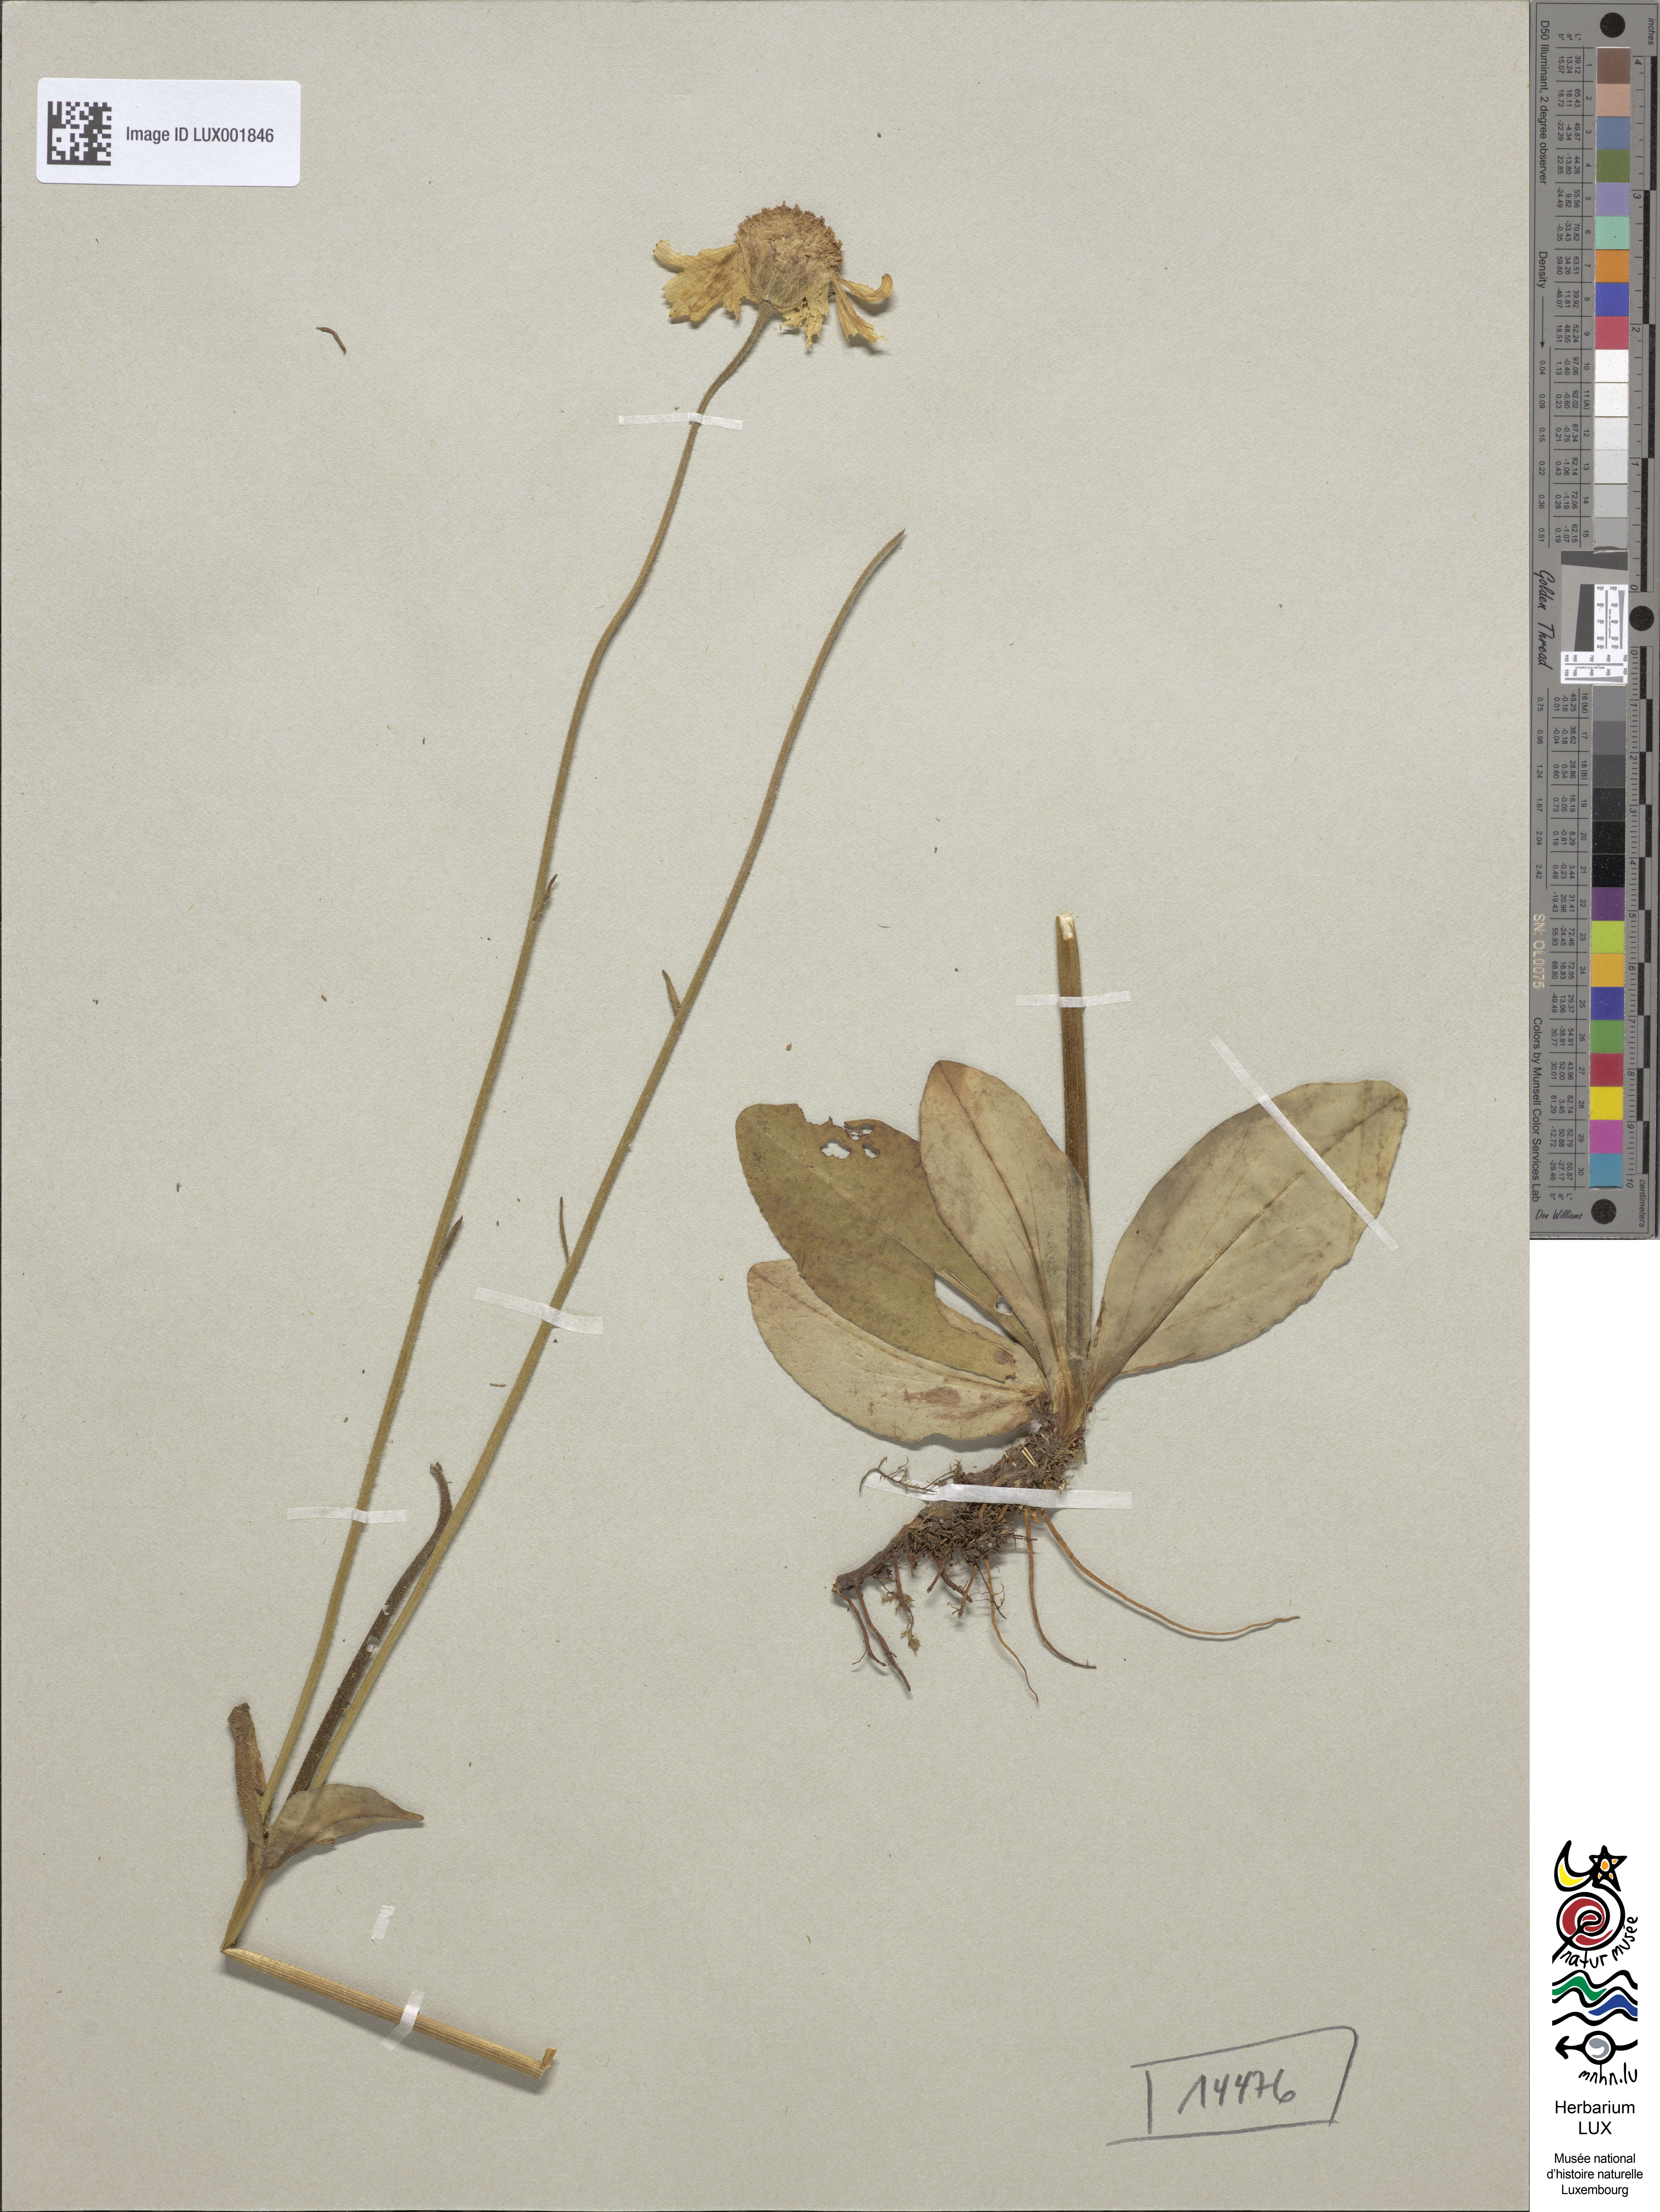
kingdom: Plantae
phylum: Tracheophyta
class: Magnoliopsida
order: Asterales
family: Asteraceae
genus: Arnica
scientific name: Arnica montana
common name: Leopard's bane
